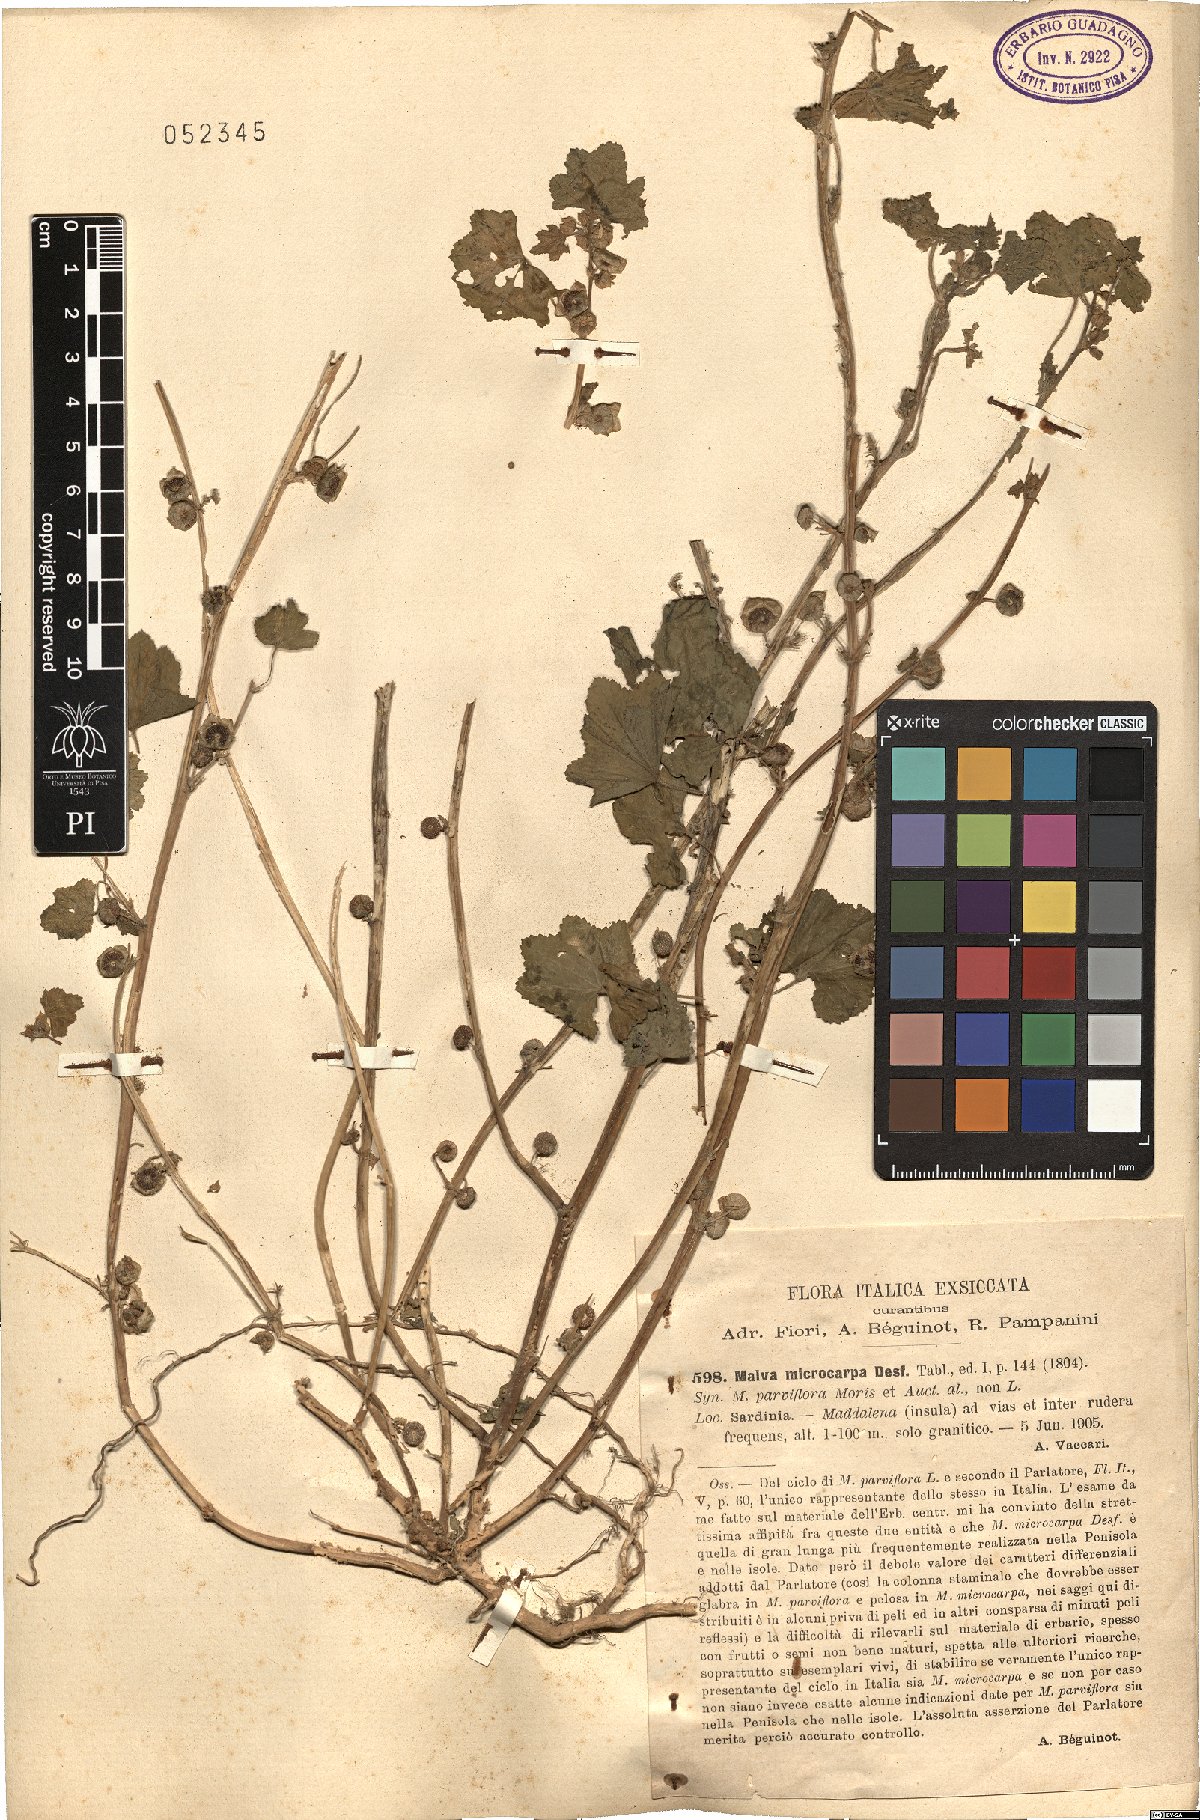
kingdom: Plantae
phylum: Tracheophyta
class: Magnoliopsida
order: Malvales
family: Malvaceae
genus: Malva
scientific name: Malva parviflora
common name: Least mallow
